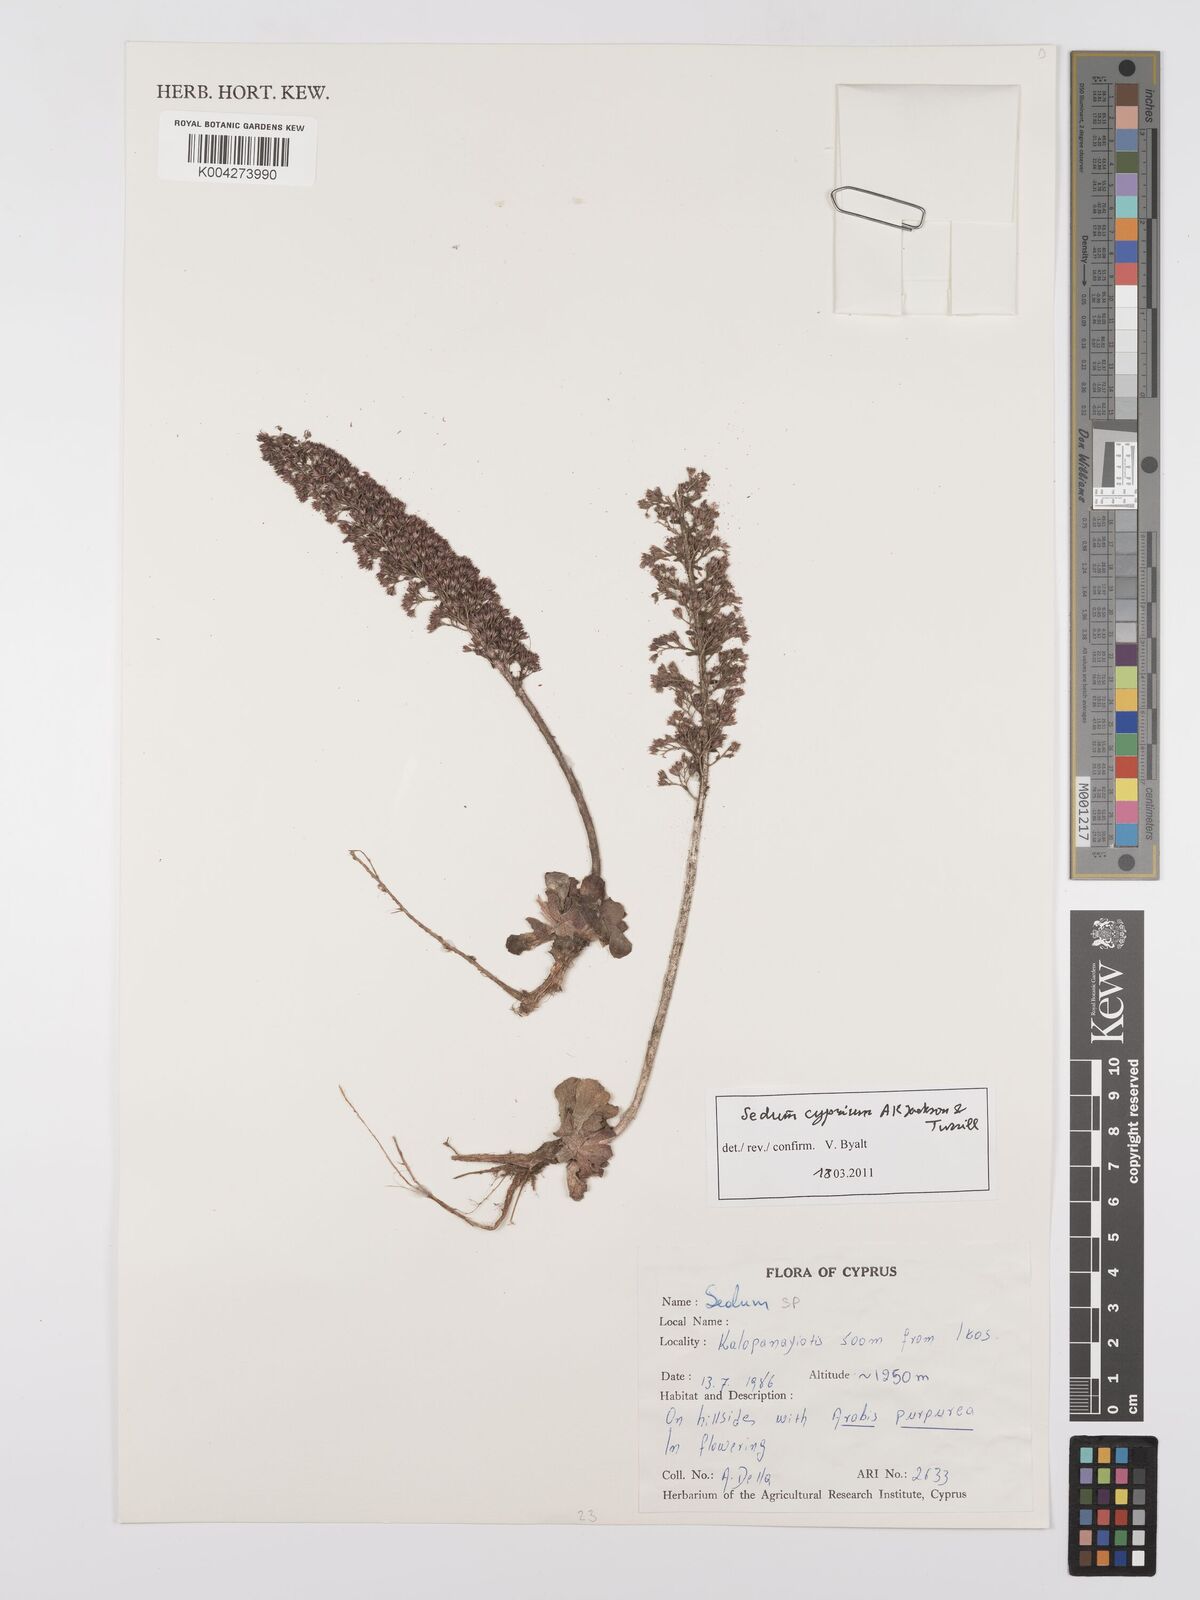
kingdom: Plantae
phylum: Tracheophyta
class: Magnoliopsida
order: Saxifragales
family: Crassulaceae
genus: Sedum
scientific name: Sedum cyprium
